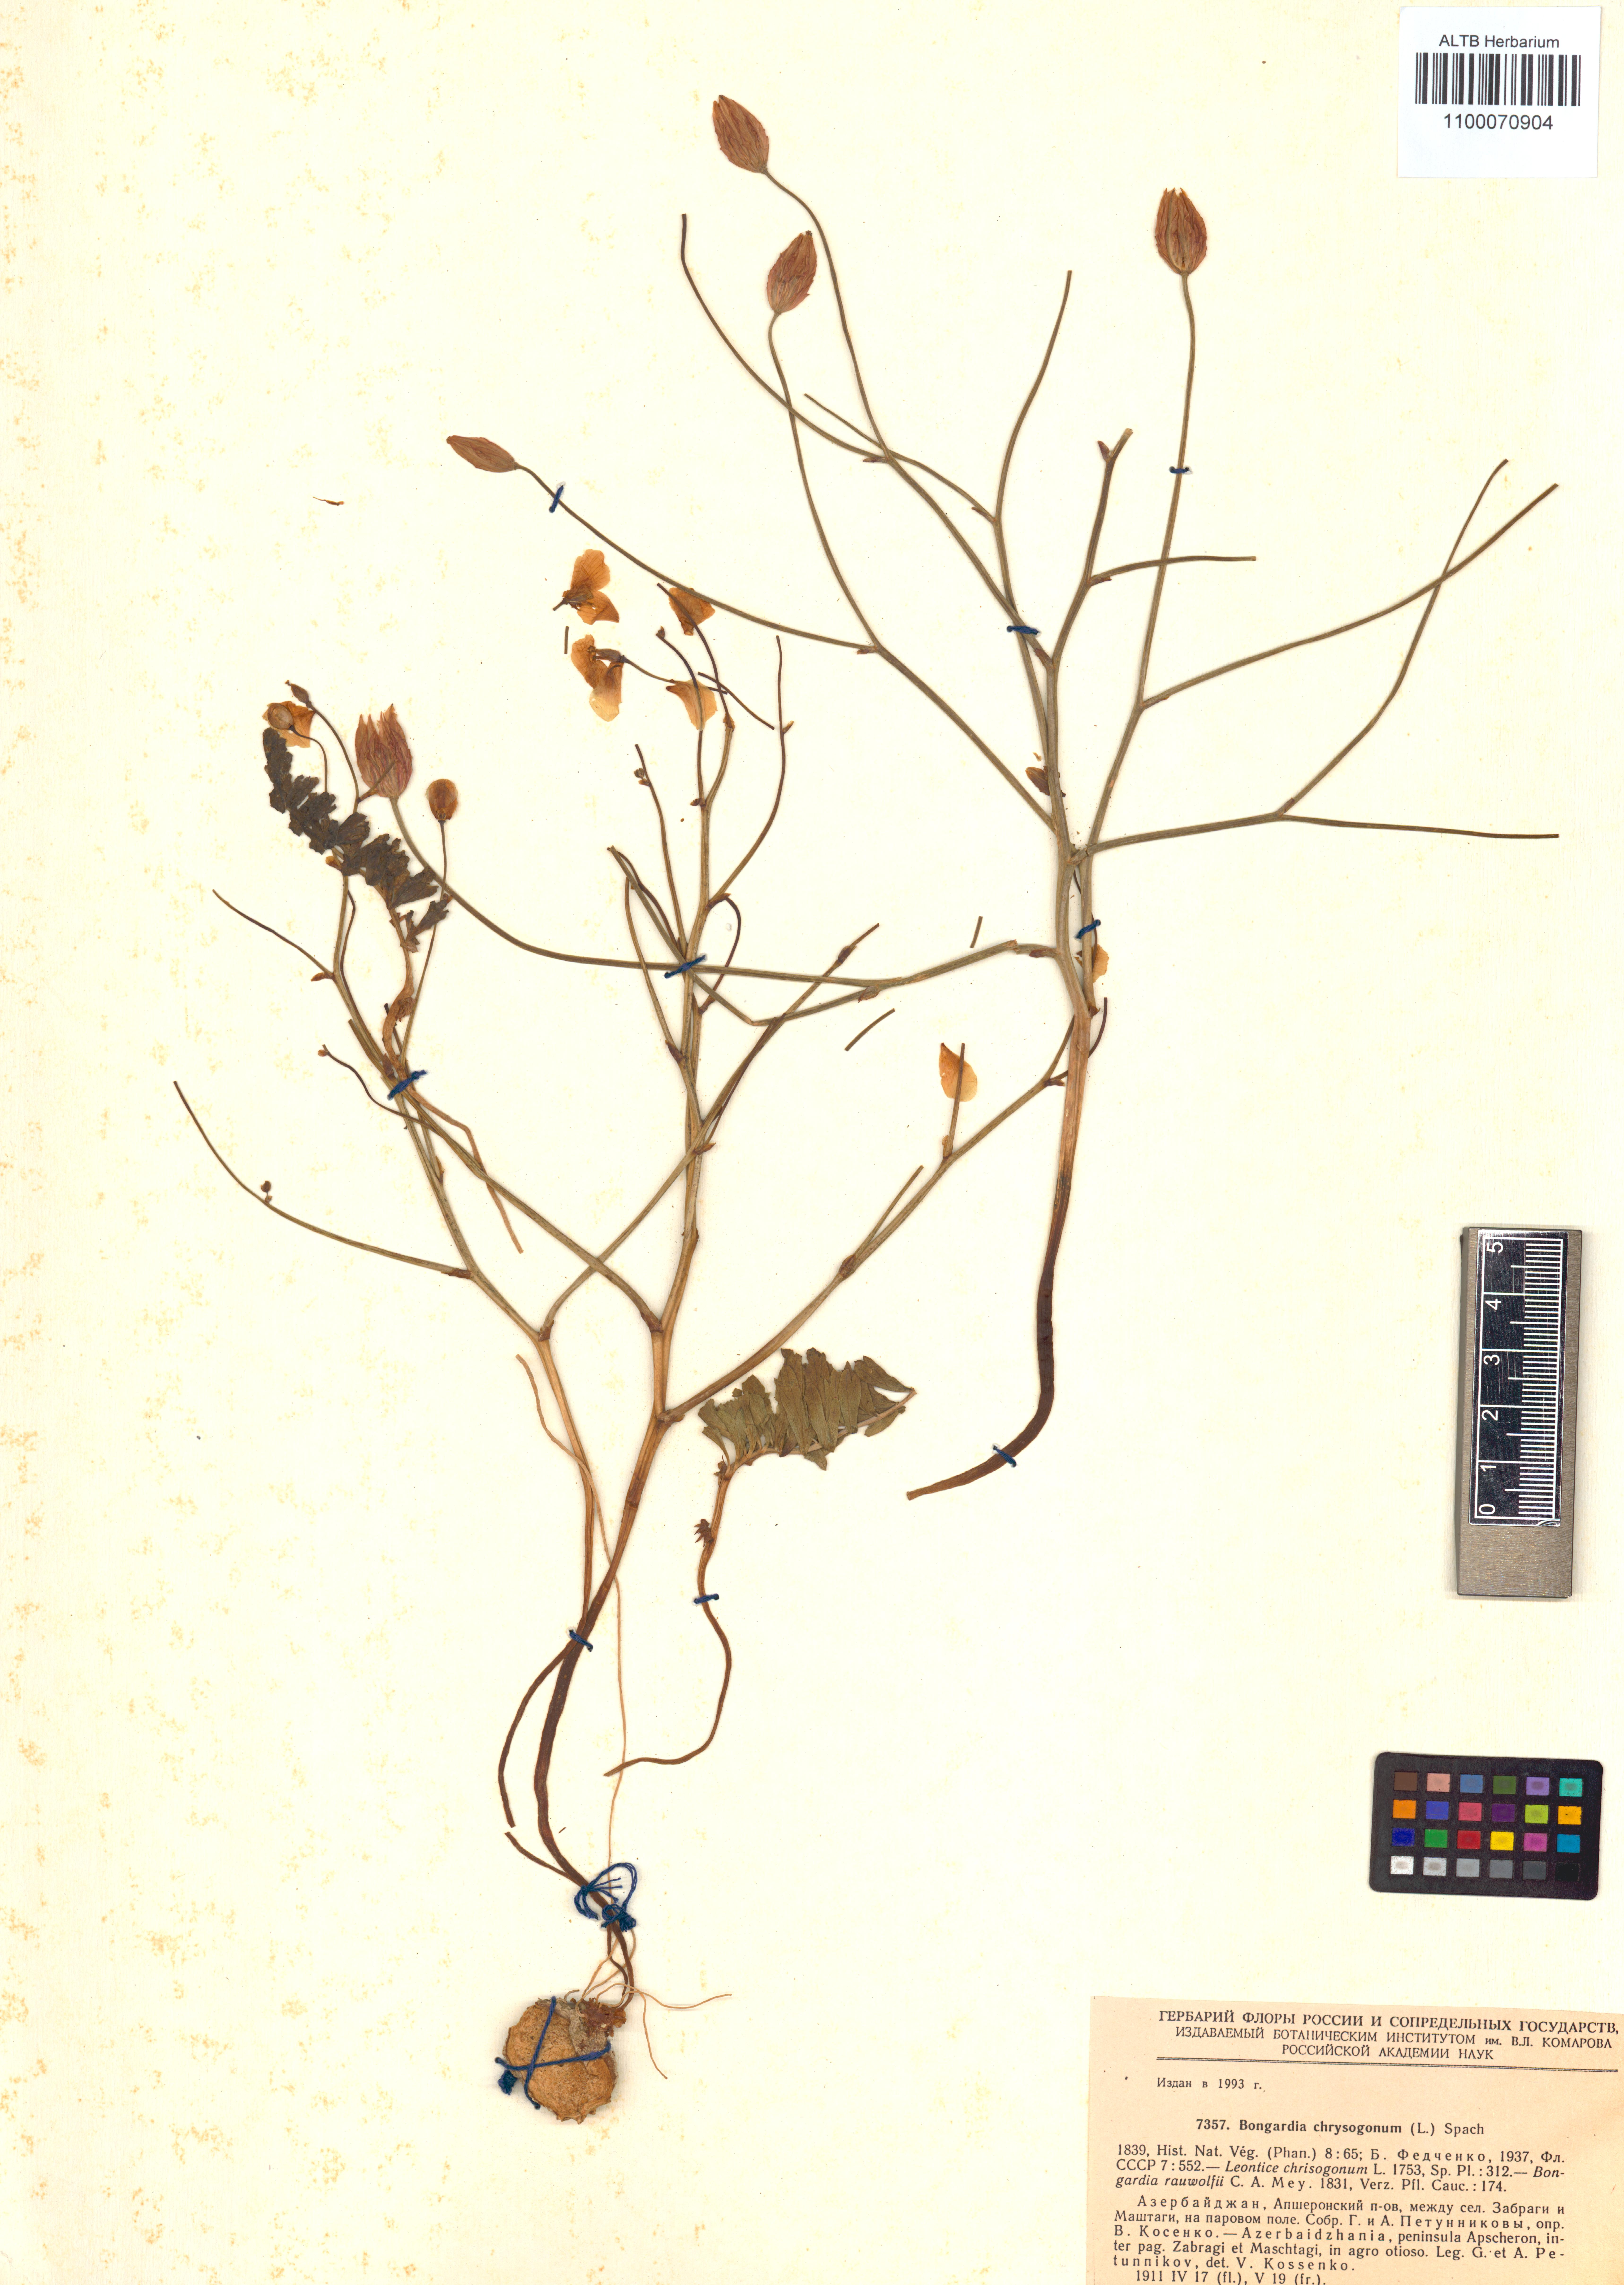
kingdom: Plantae
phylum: Tracheophyta
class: Magnoliopsida
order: Ranunculales
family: Berberidaceae
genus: Bongardia
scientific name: Bongardia chrysogonum
